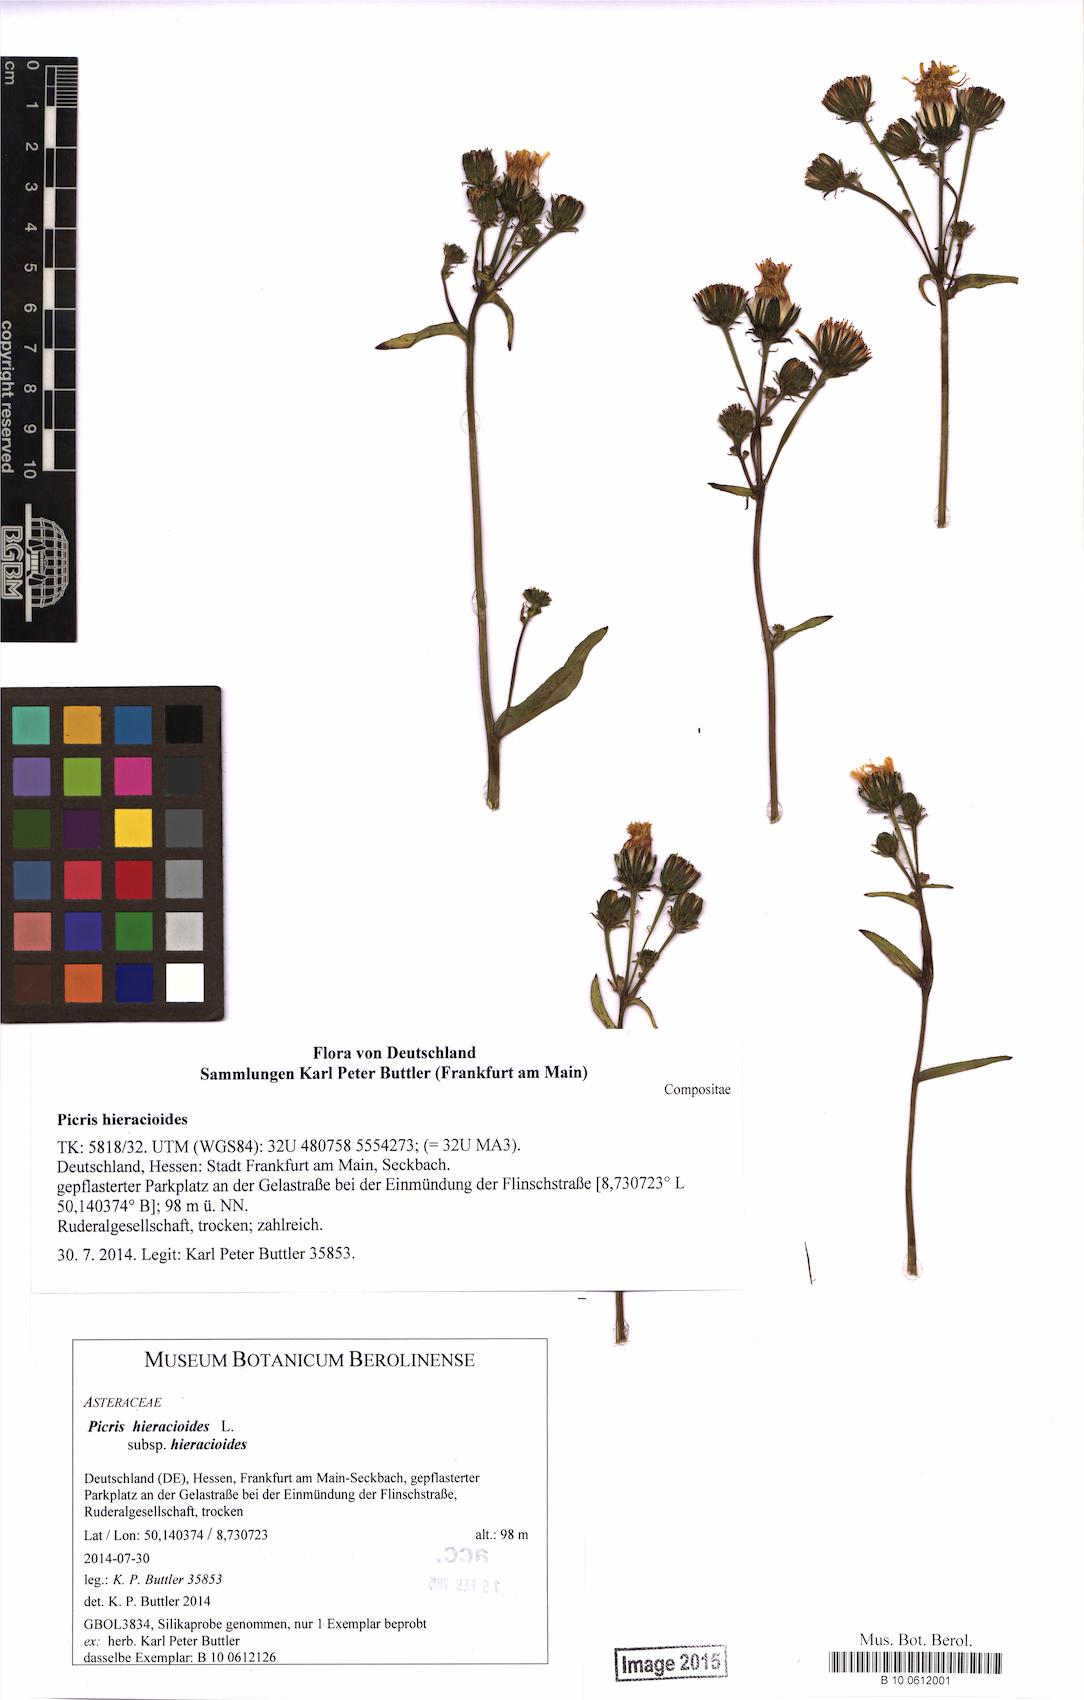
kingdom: Plantae
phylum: Tracheophyta
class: Magnoliopsida
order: Asterales
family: Asteraceae
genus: Picris
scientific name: Picris hieracioides
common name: Hawkweed oxtongue
